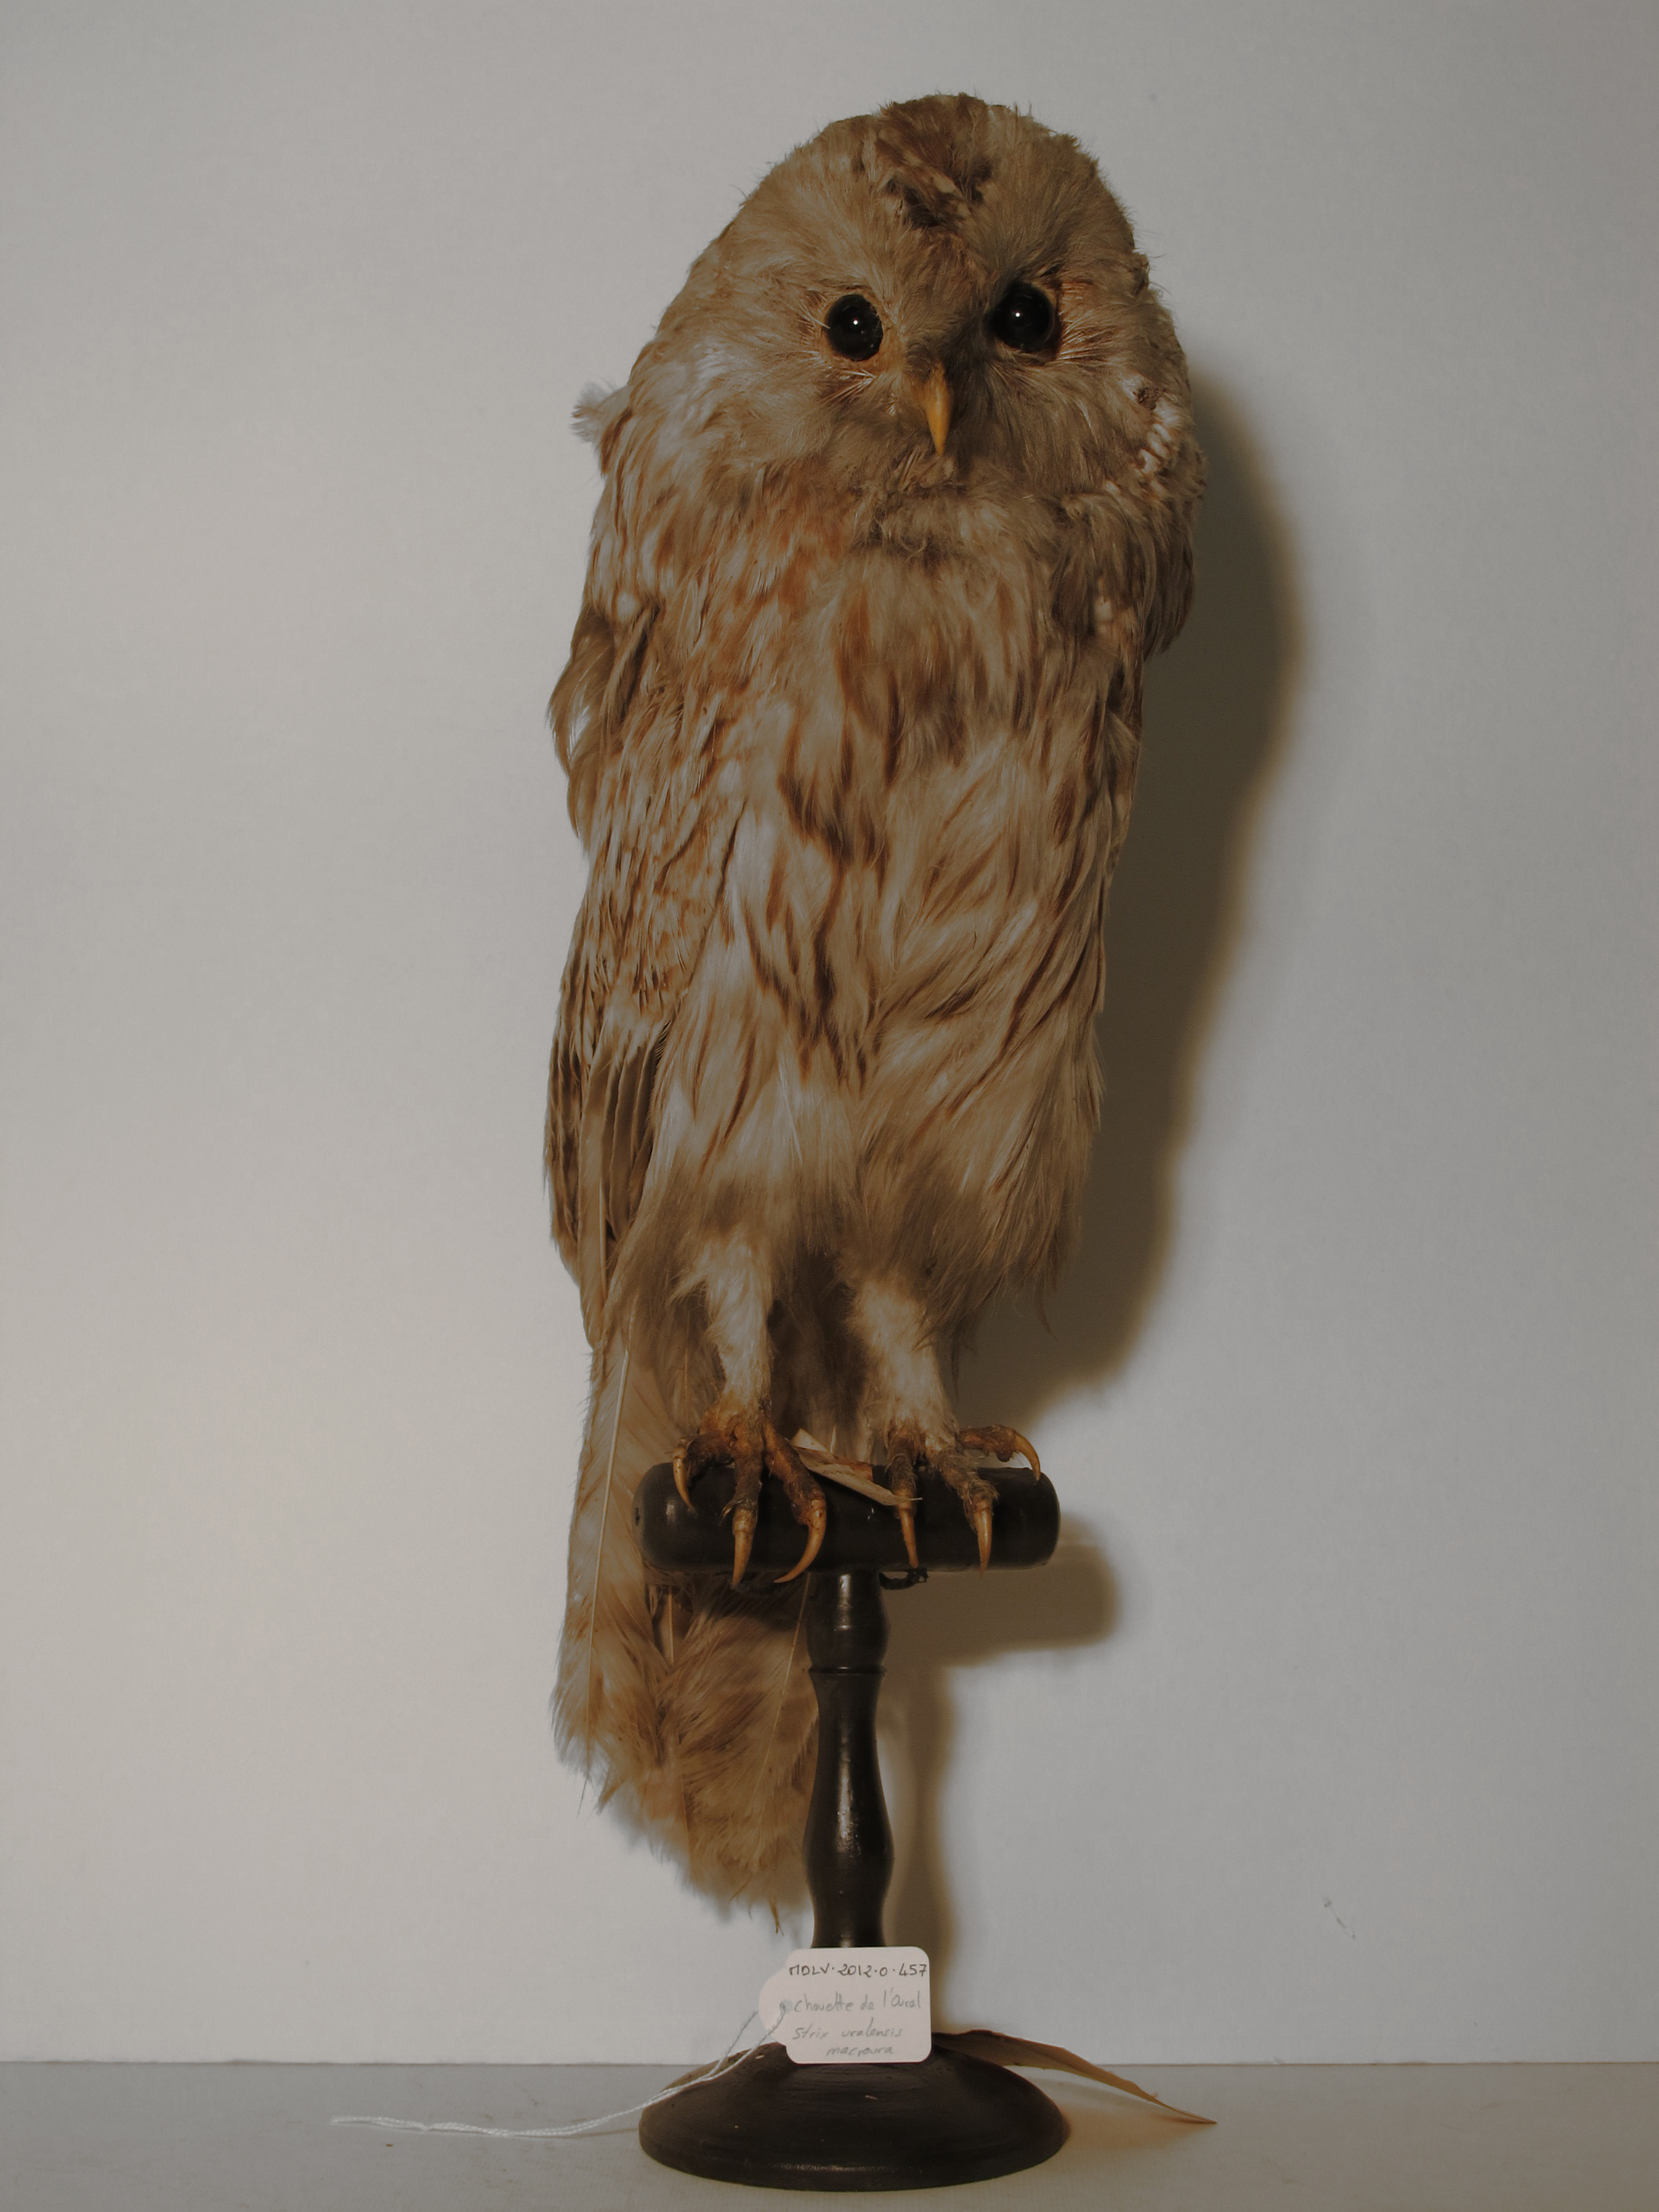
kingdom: Animalia
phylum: Chordata
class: Aves
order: Strigiformes
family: Strigidae
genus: Strix
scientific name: Strix uralensis
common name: Ural Owl
